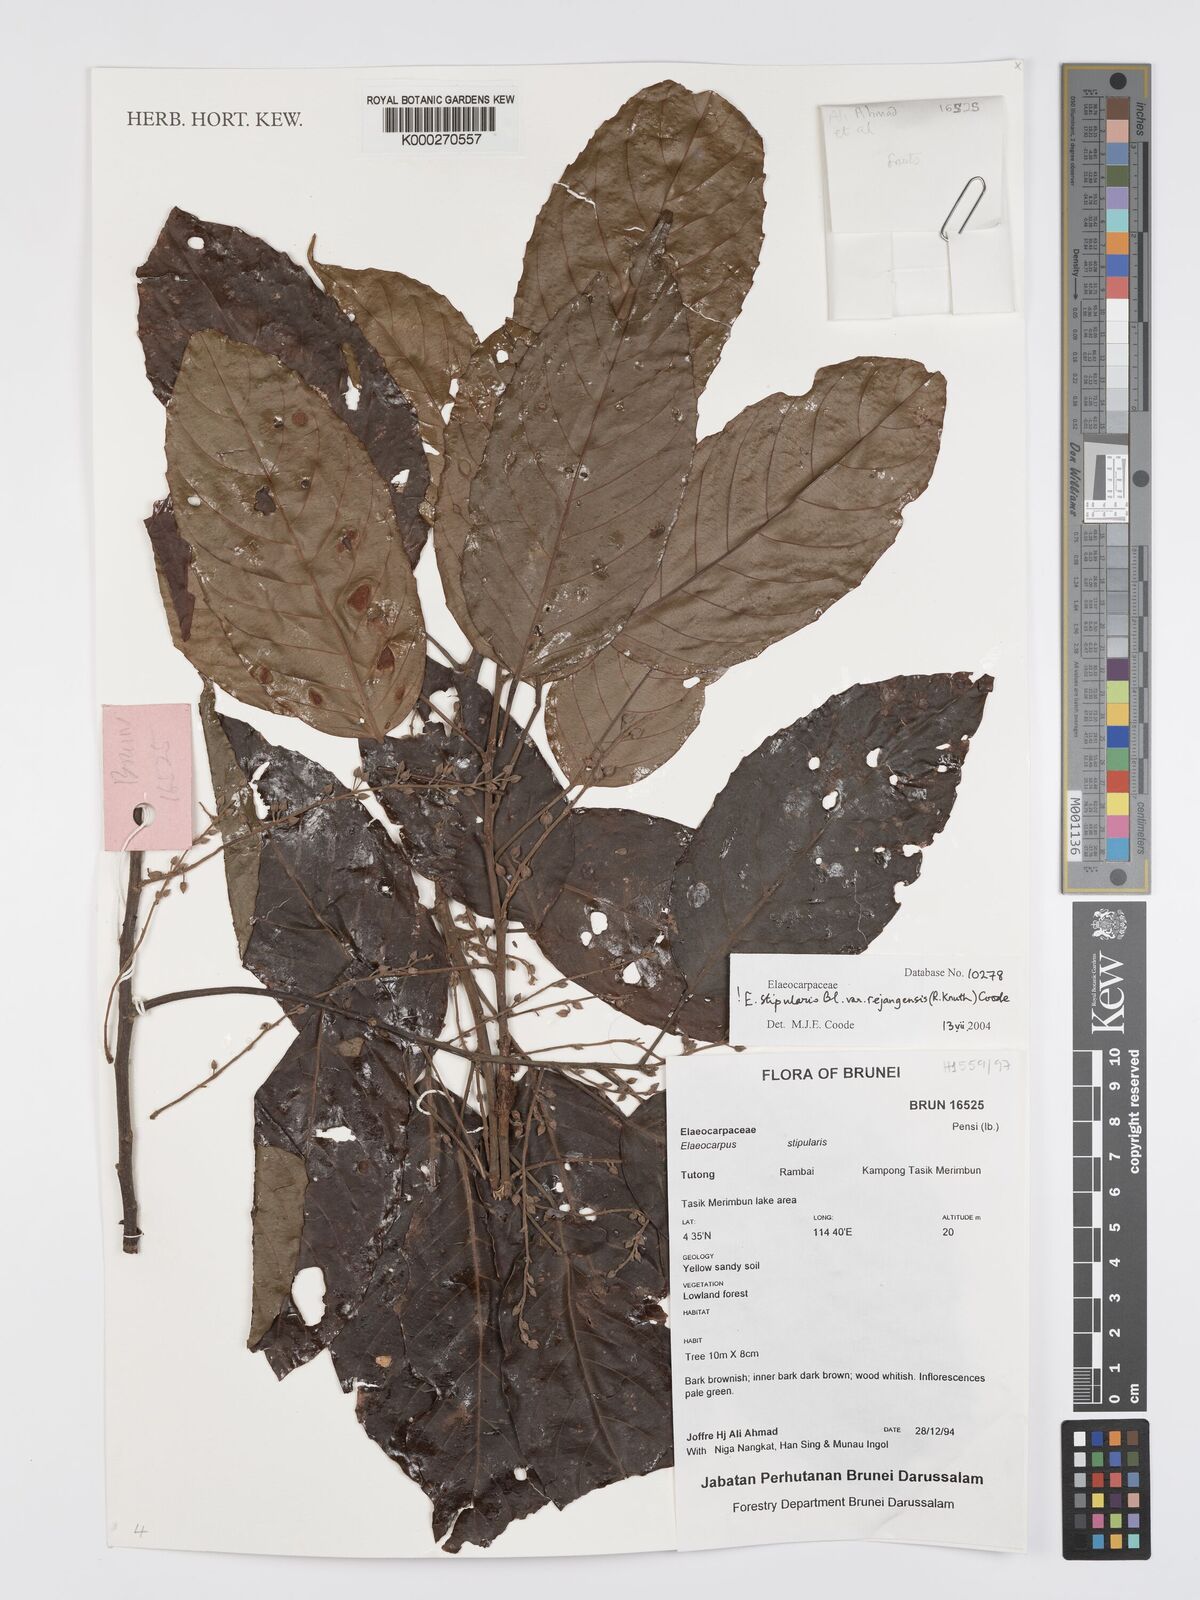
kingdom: Plantae
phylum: Tracheophyta
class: Magnoliopsida
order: Oxalidales
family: Elaeocarpaceae
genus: Elaeocarpus
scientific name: Elaeocarpus stipularis
